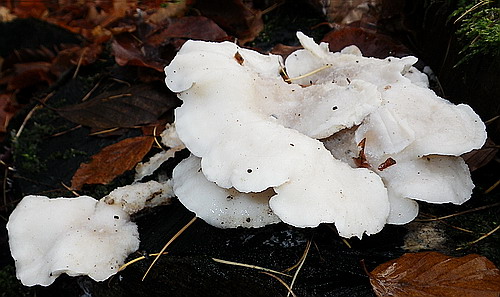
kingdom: Fungi
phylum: Basidiomycota
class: Agaricomycetes
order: Polyporales
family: Incrustoporiaceae
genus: Tyromyces
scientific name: Tyromyces chioneus
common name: stor blødporesvamp
